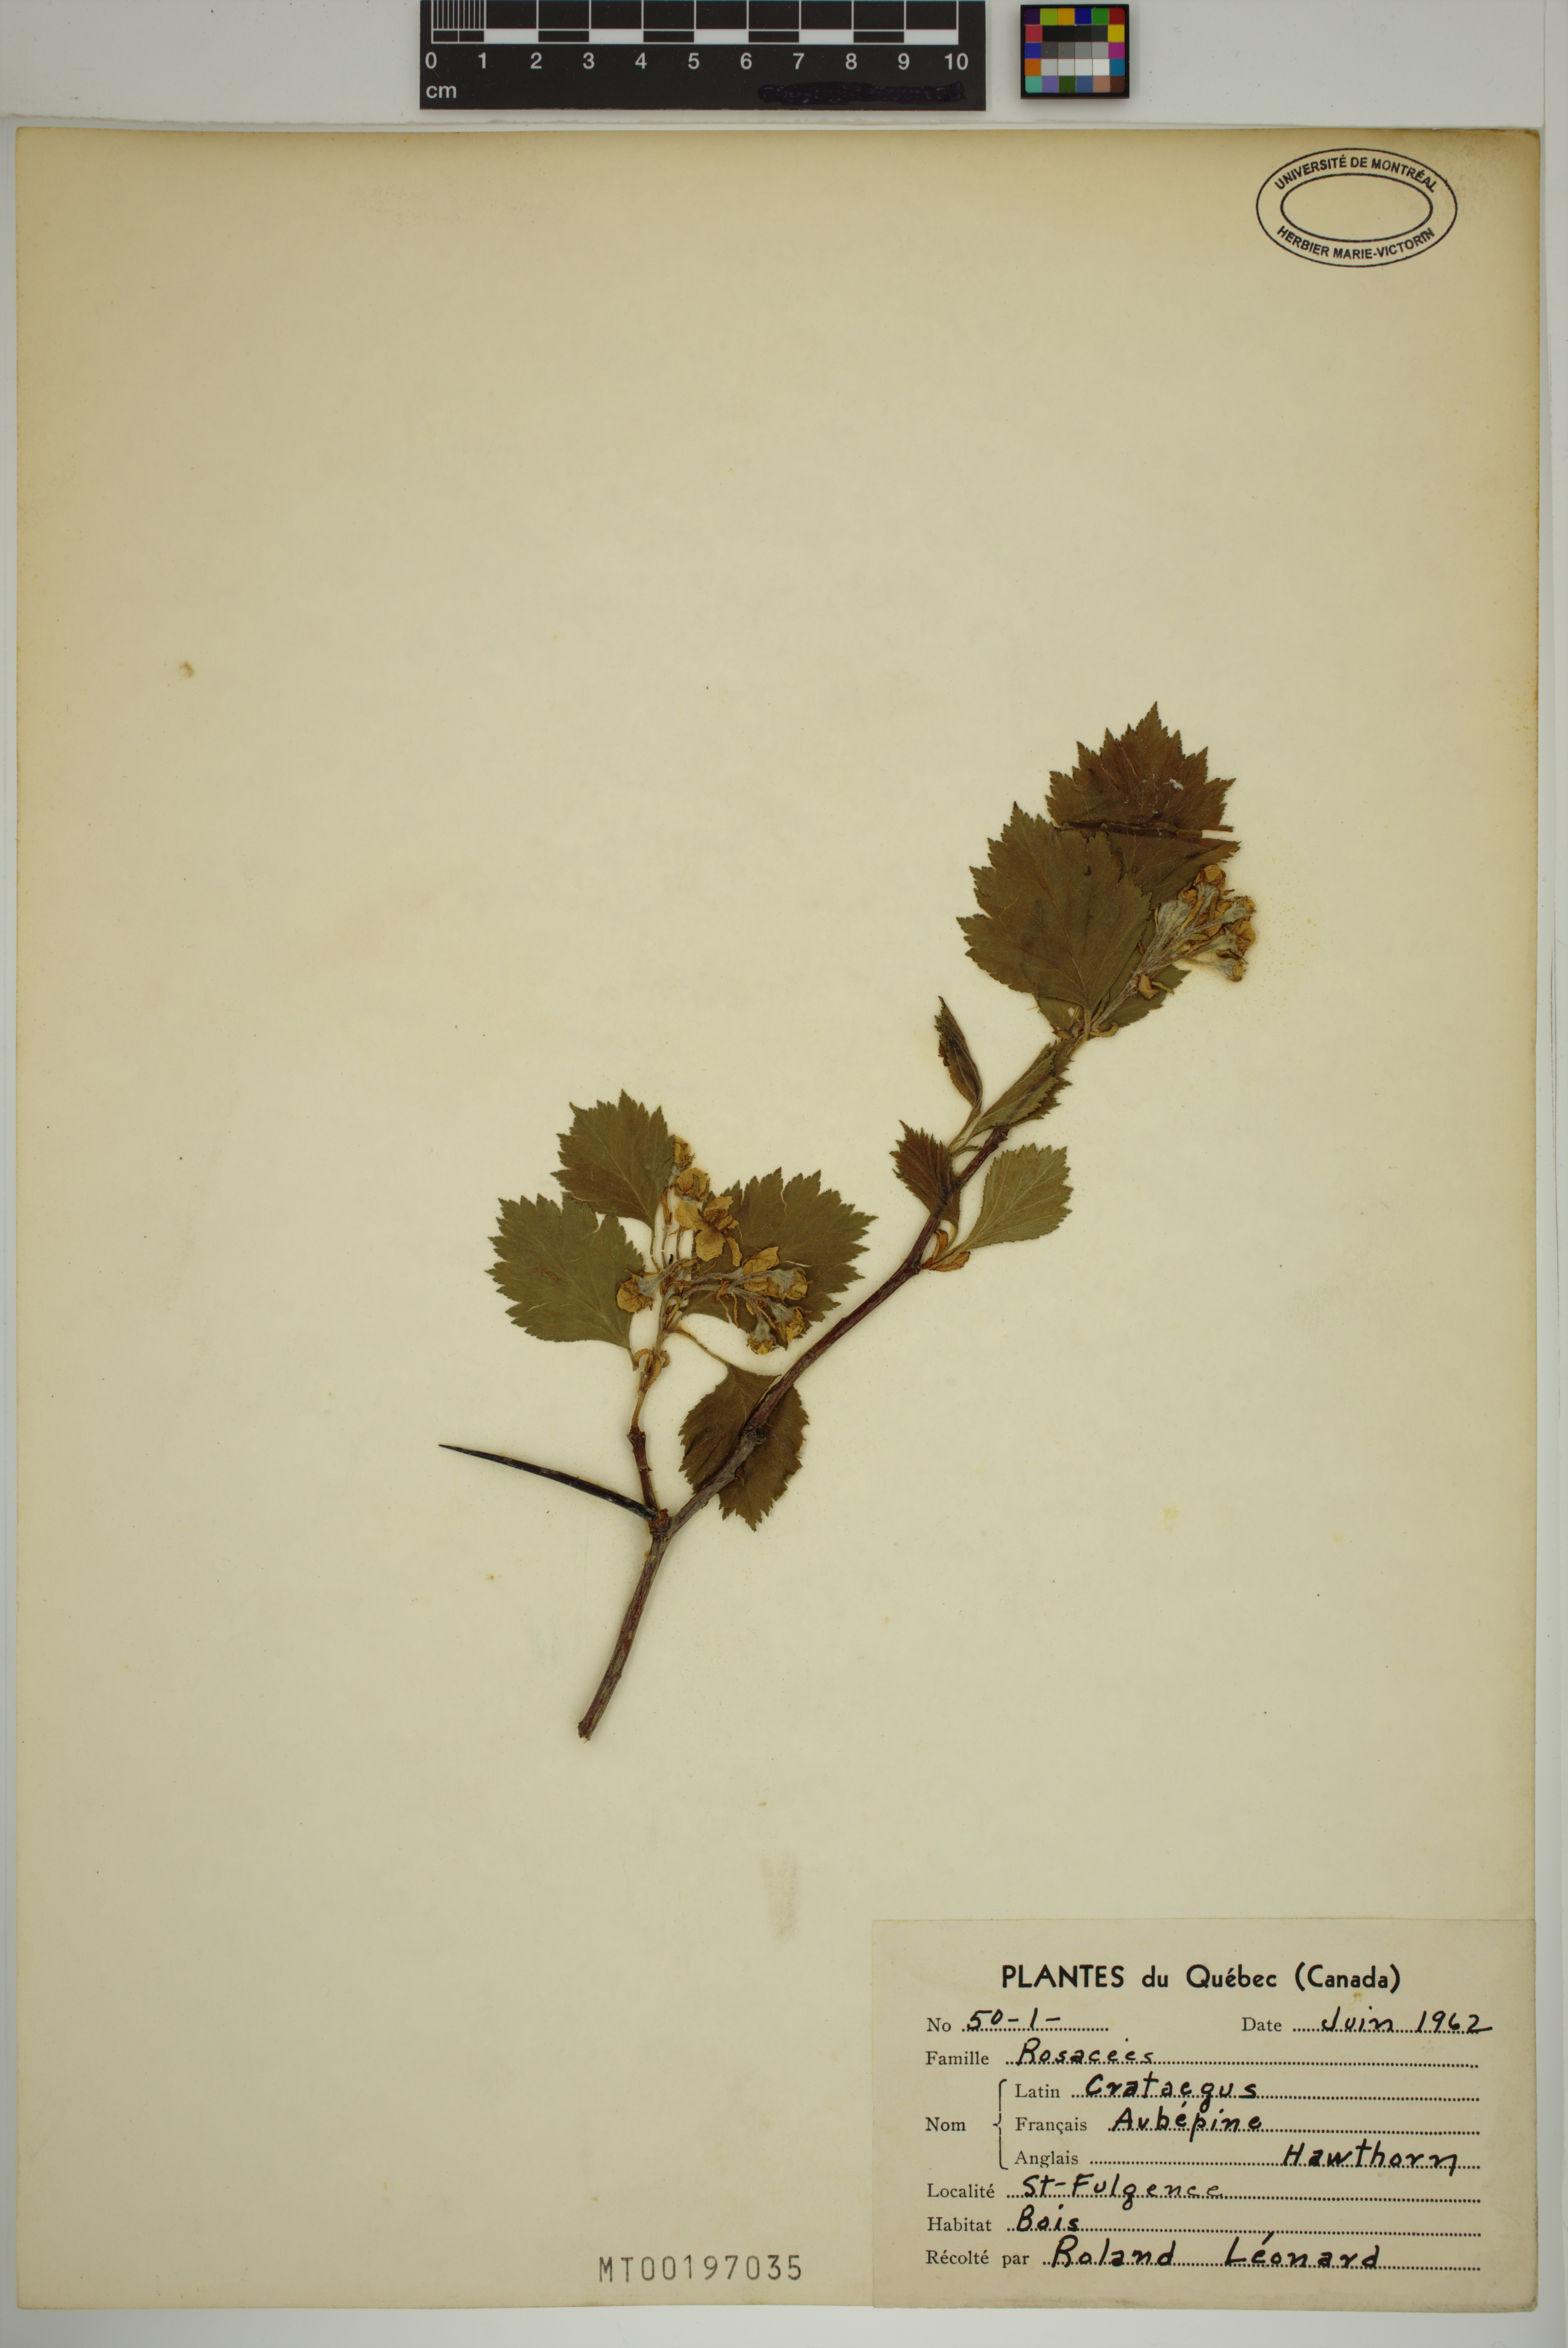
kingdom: Plantae
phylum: Tracheophyta
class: Magnoliopsida
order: Rosales
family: Rosaceae
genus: Crataegus
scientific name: Crataegus
